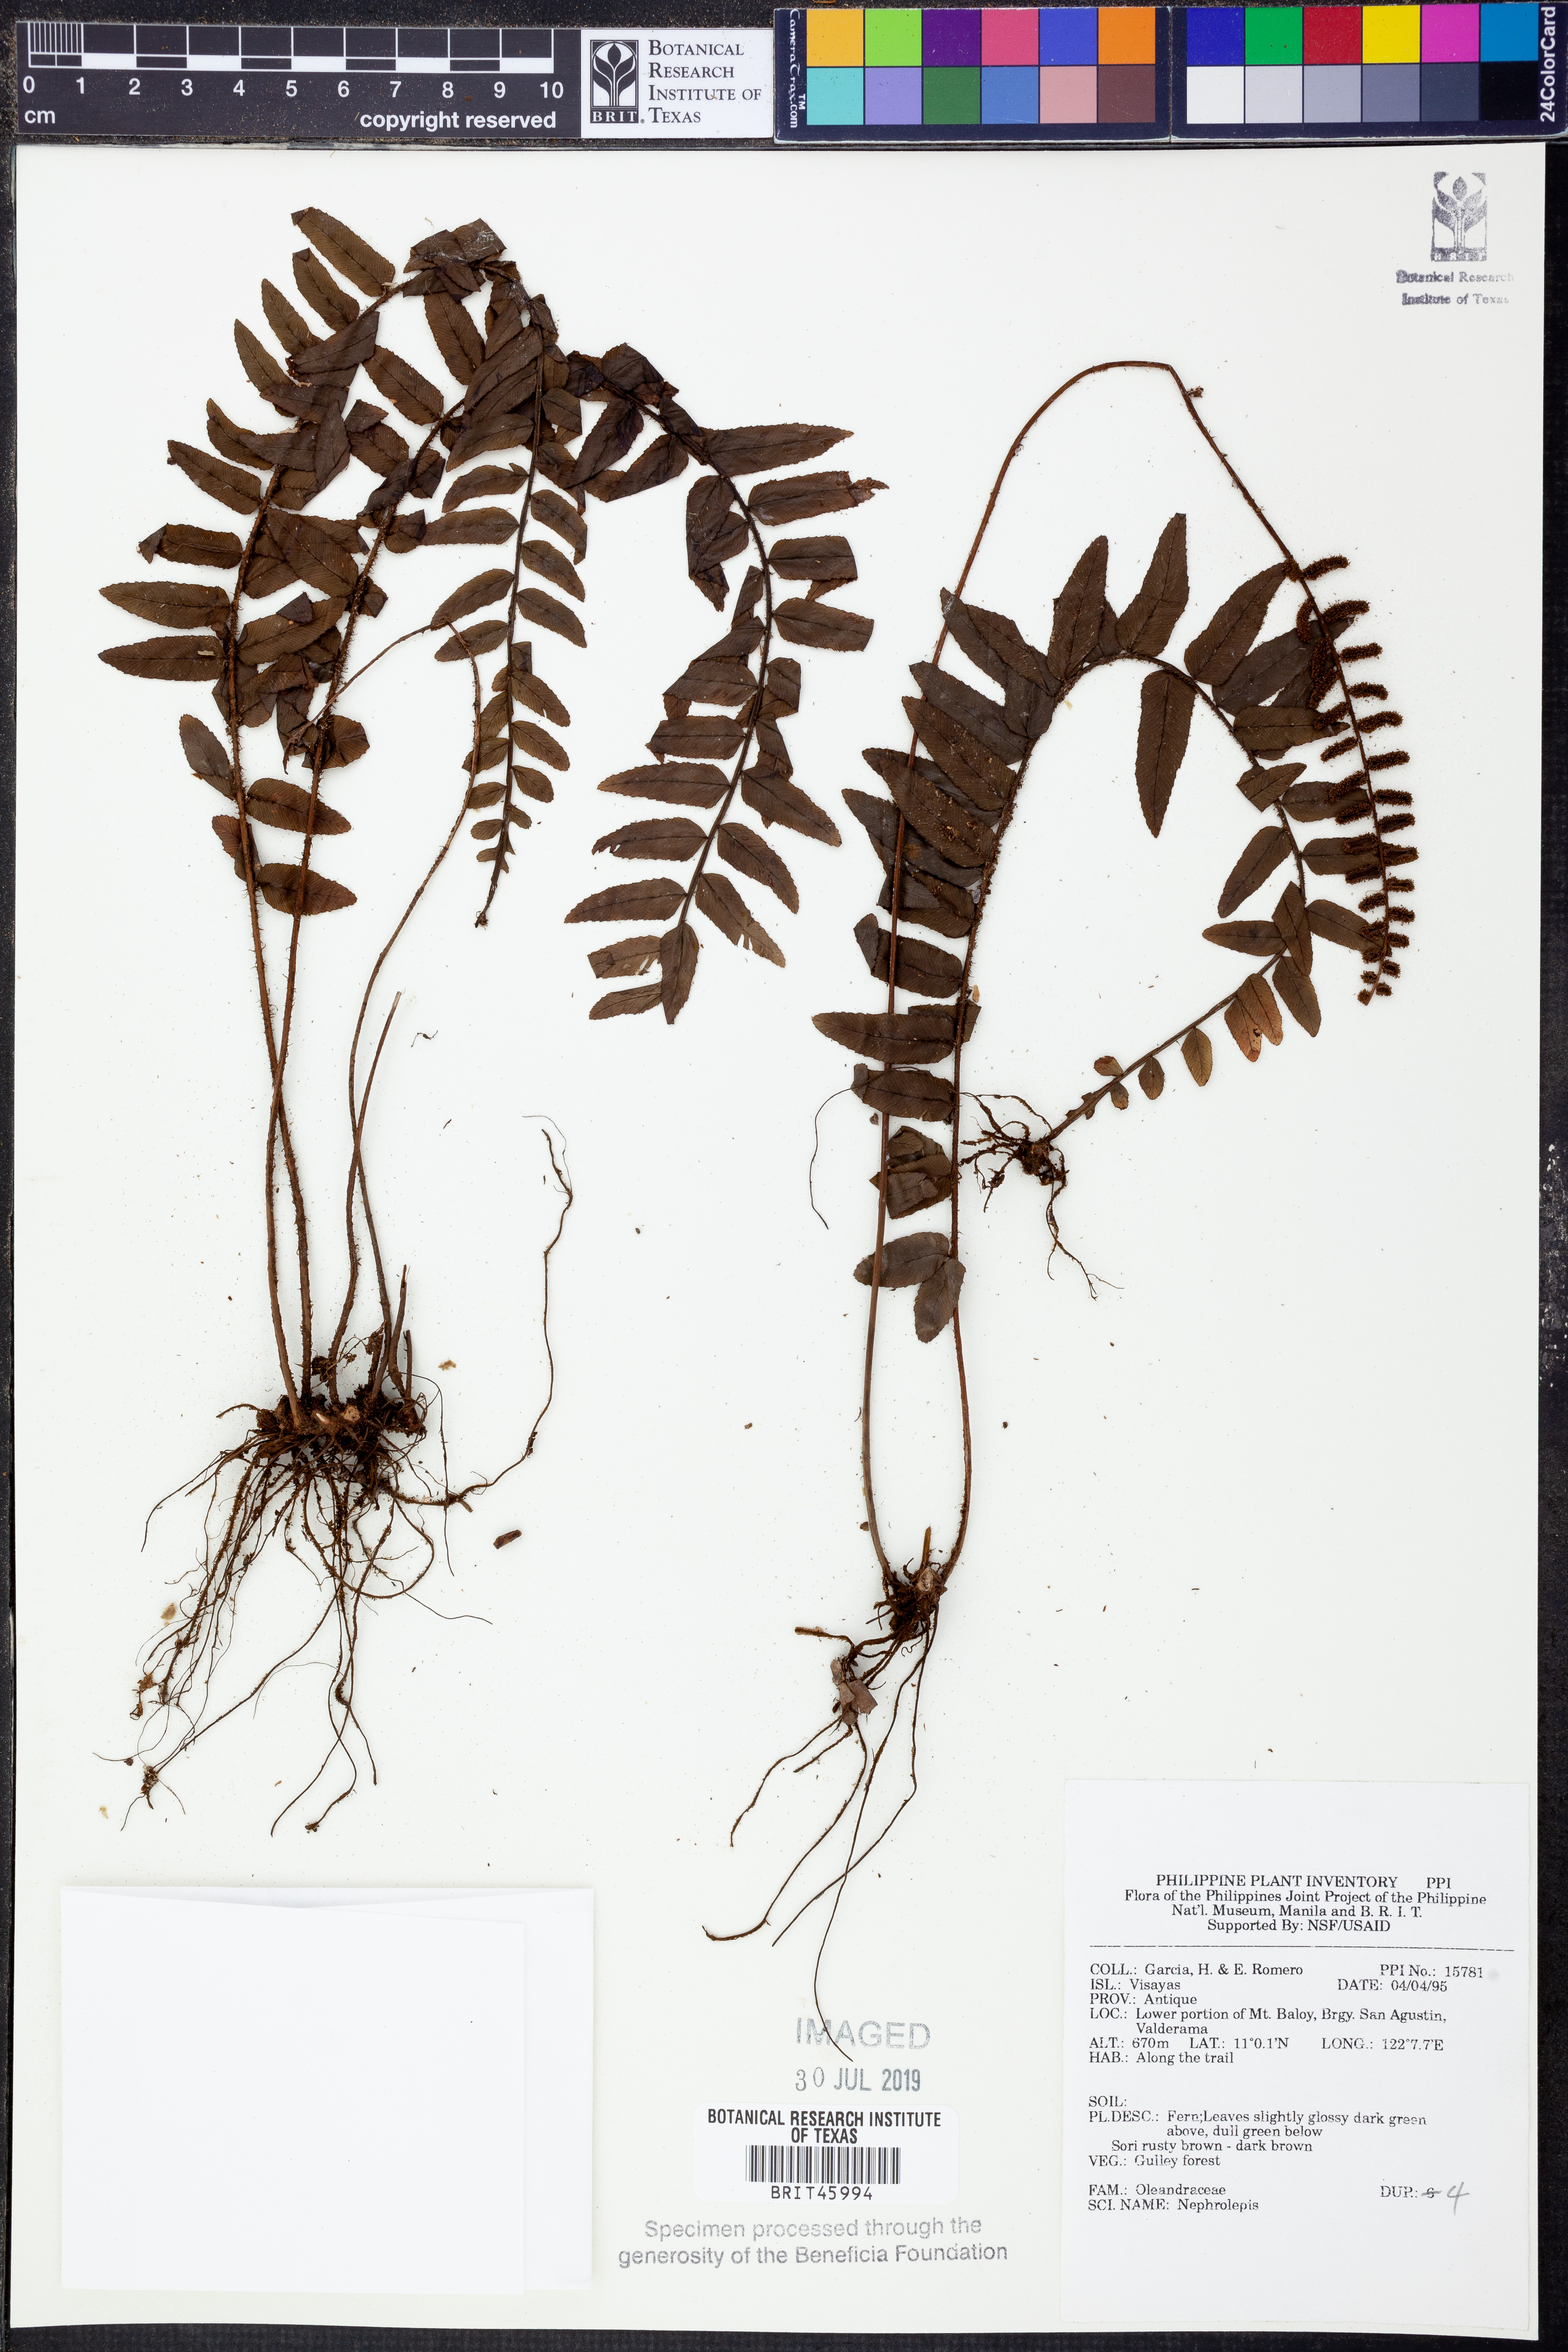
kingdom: Plantae
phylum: Tracheophyta
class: Polypodiopsida
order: Polypodiales
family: Nephrolepidaceae
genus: Nephrolepis
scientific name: Nephrolepis
